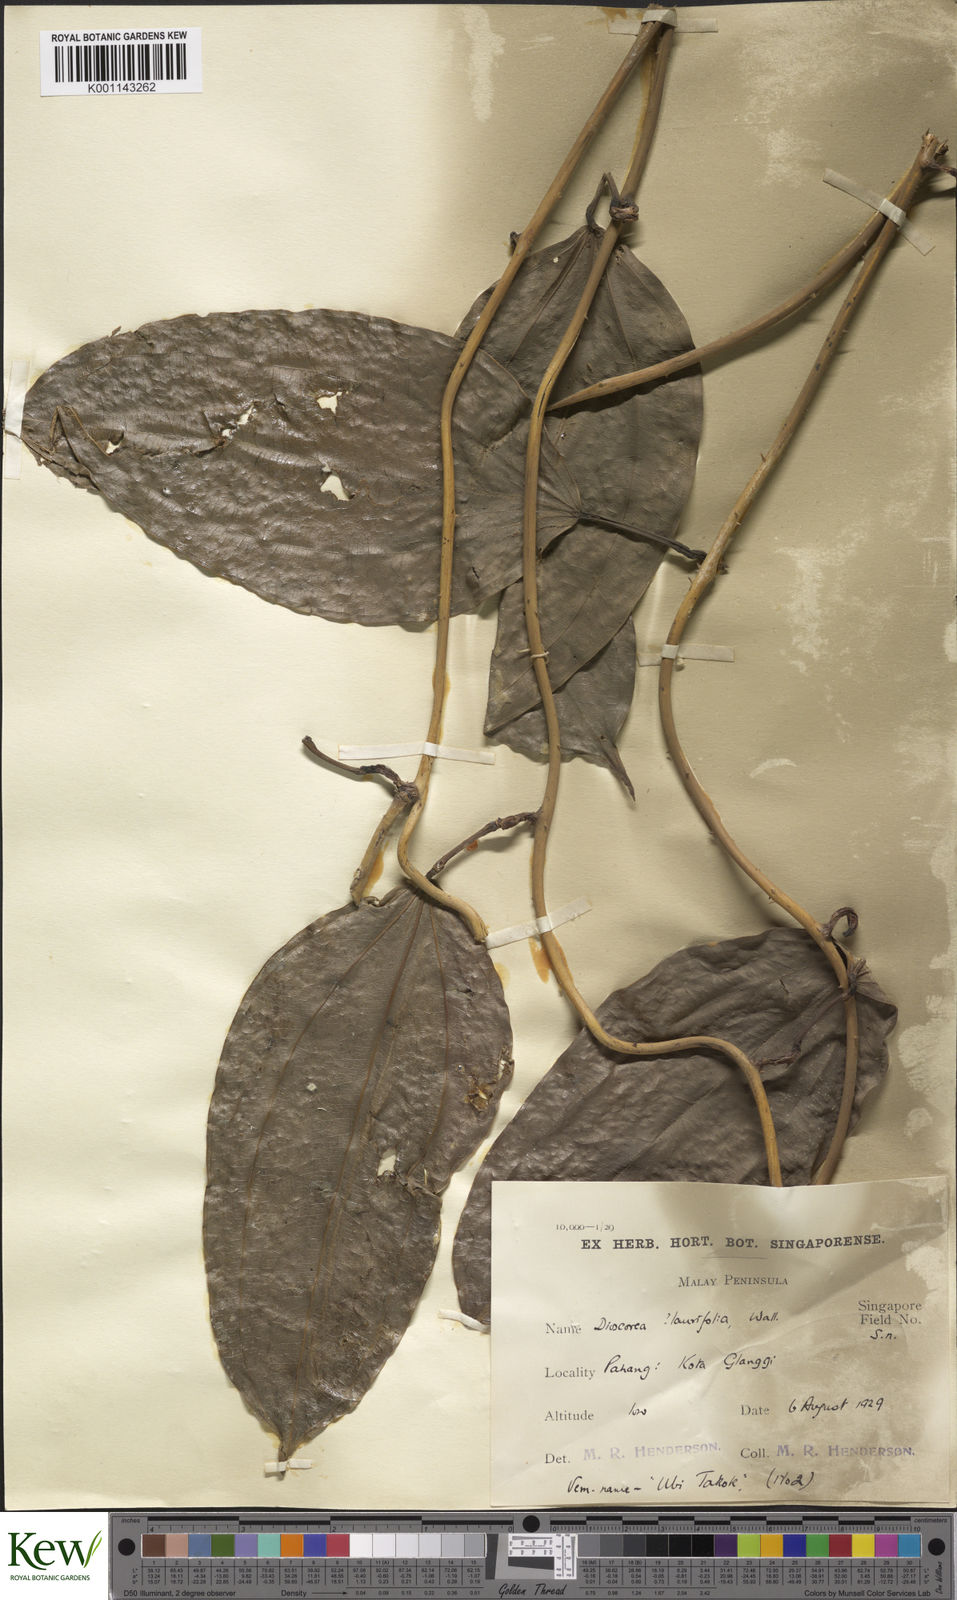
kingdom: Plantae
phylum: Tracheophyta
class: Liliopsida
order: Dioscoreales
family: Dioscoreaceae
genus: Dioscorea
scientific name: Dioscorea lamprocaula
